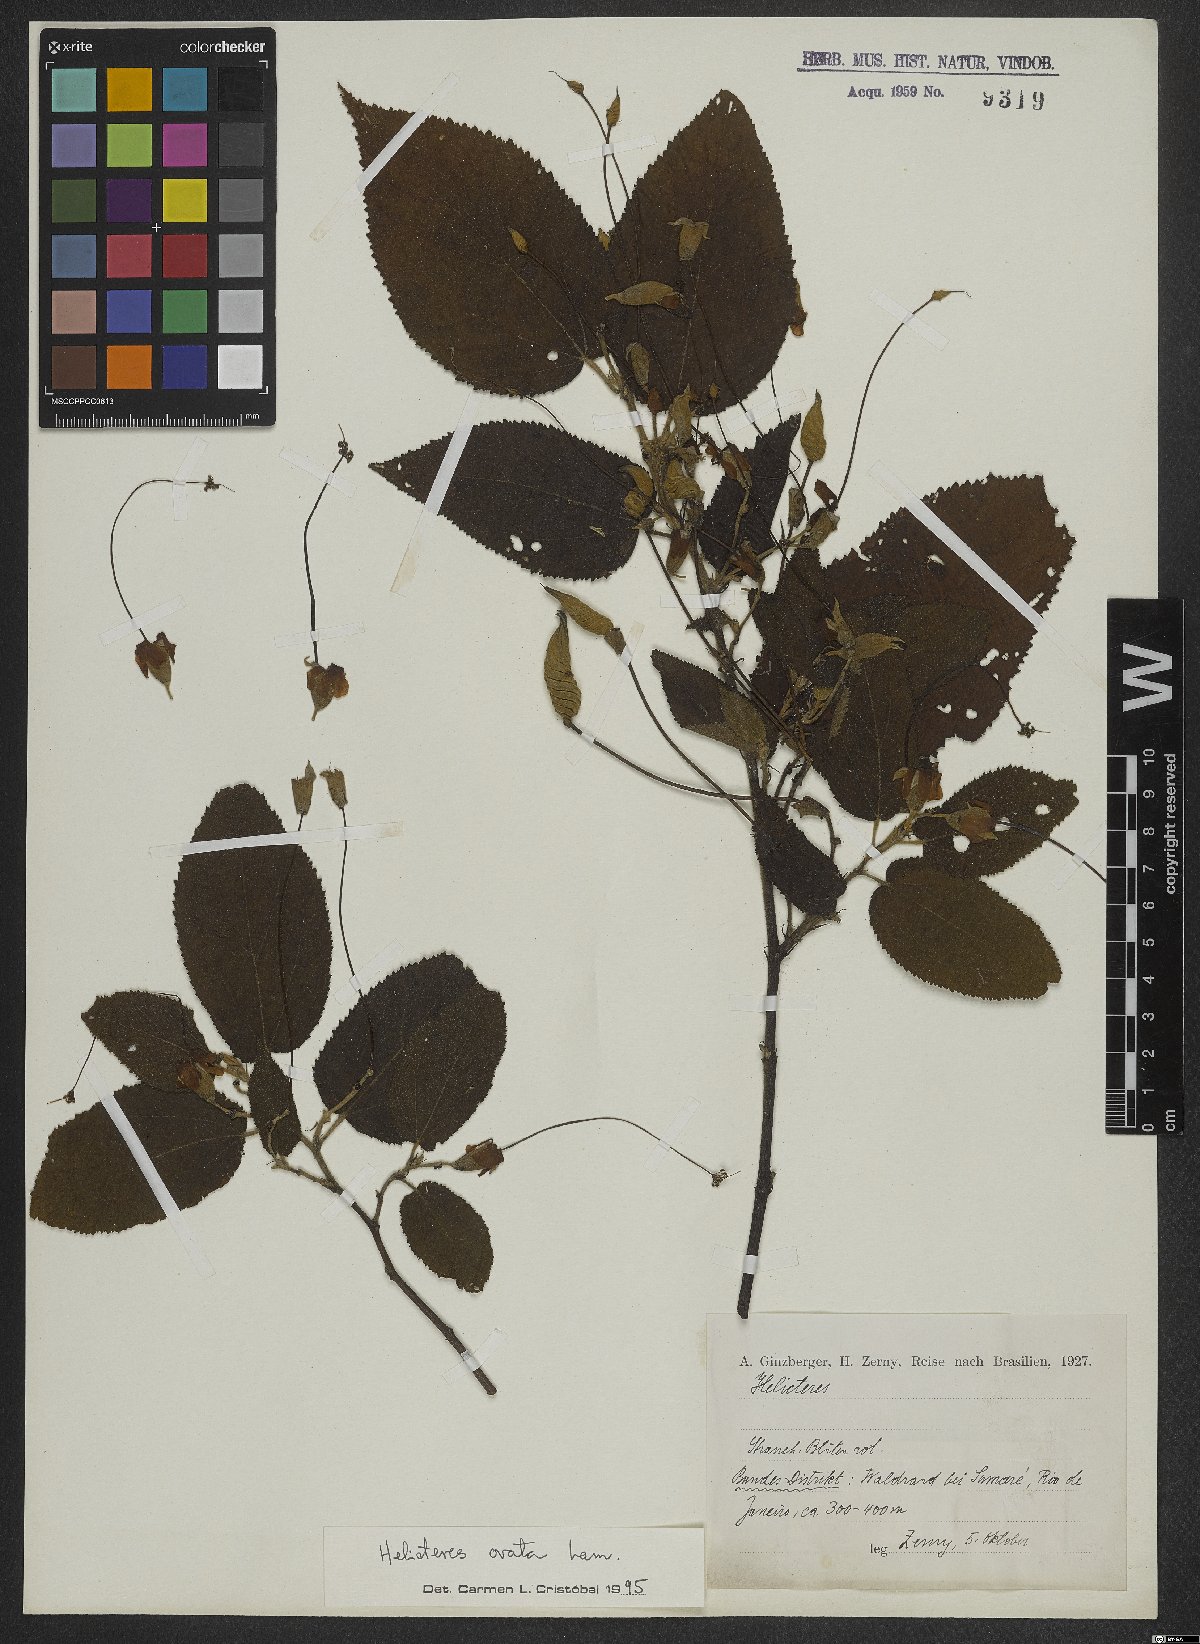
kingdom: Plantae
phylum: Tracheophyta
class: Magnoliopsida
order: Malvales
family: Malvaceae
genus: Helicteres
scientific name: Helicteres ovata
